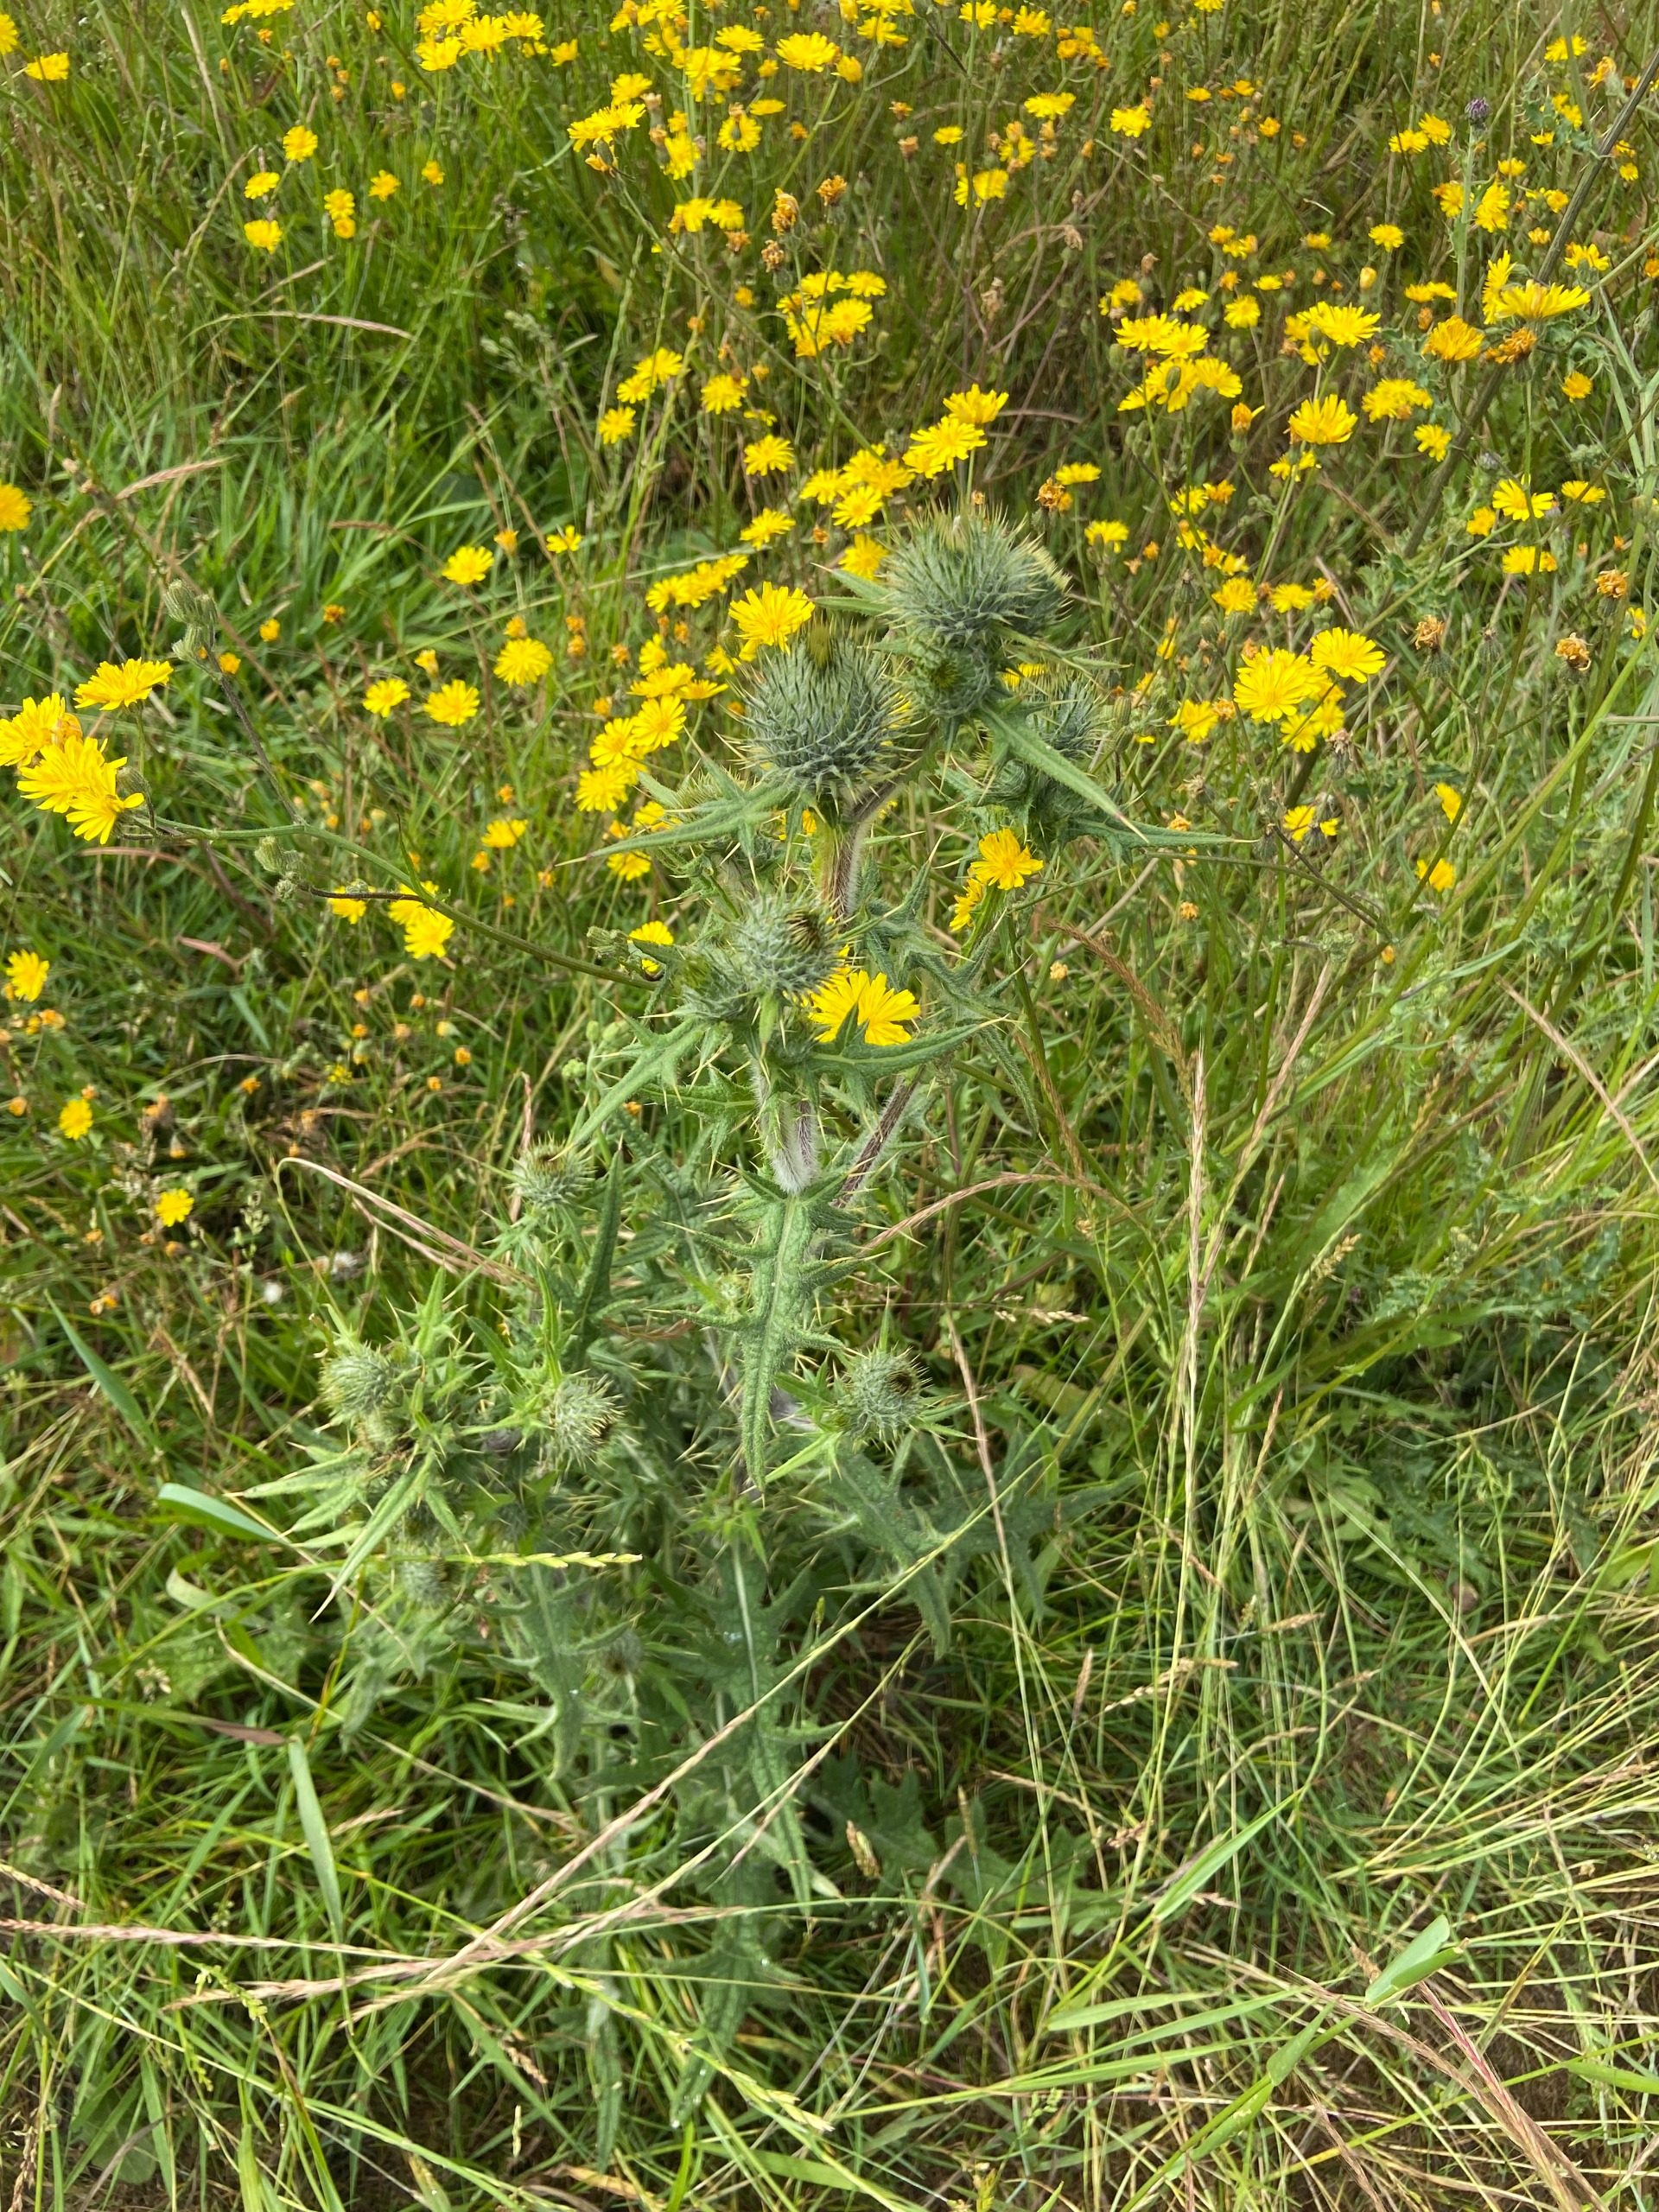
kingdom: Plantae
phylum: Tracheophyta
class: Magnoliopsida
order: Asterales
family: Asteraceae
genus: Cirsium
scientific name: Cirsium vulgare
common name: Horse-tidsel
